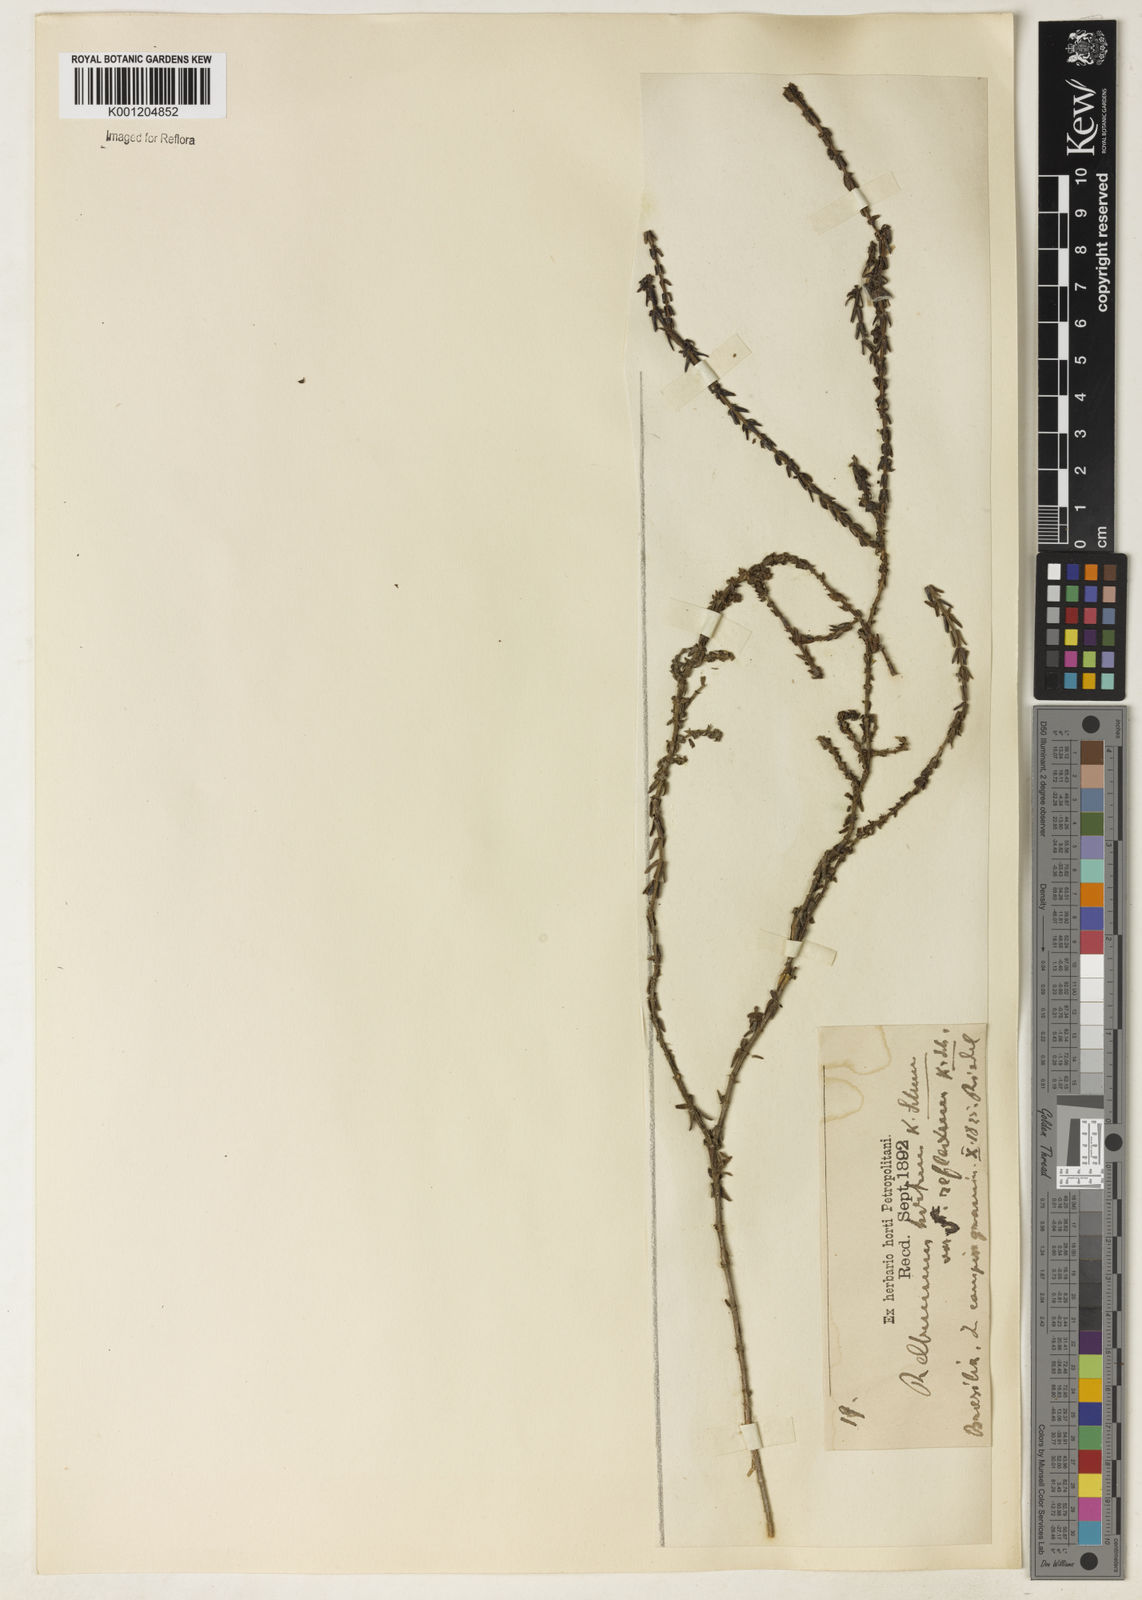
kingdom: Plantae
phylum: Tracheophyta
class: Magnoliopsida
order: Gentianales
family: Rubiaceae
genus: Galium
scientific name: Galium megapotamicum
